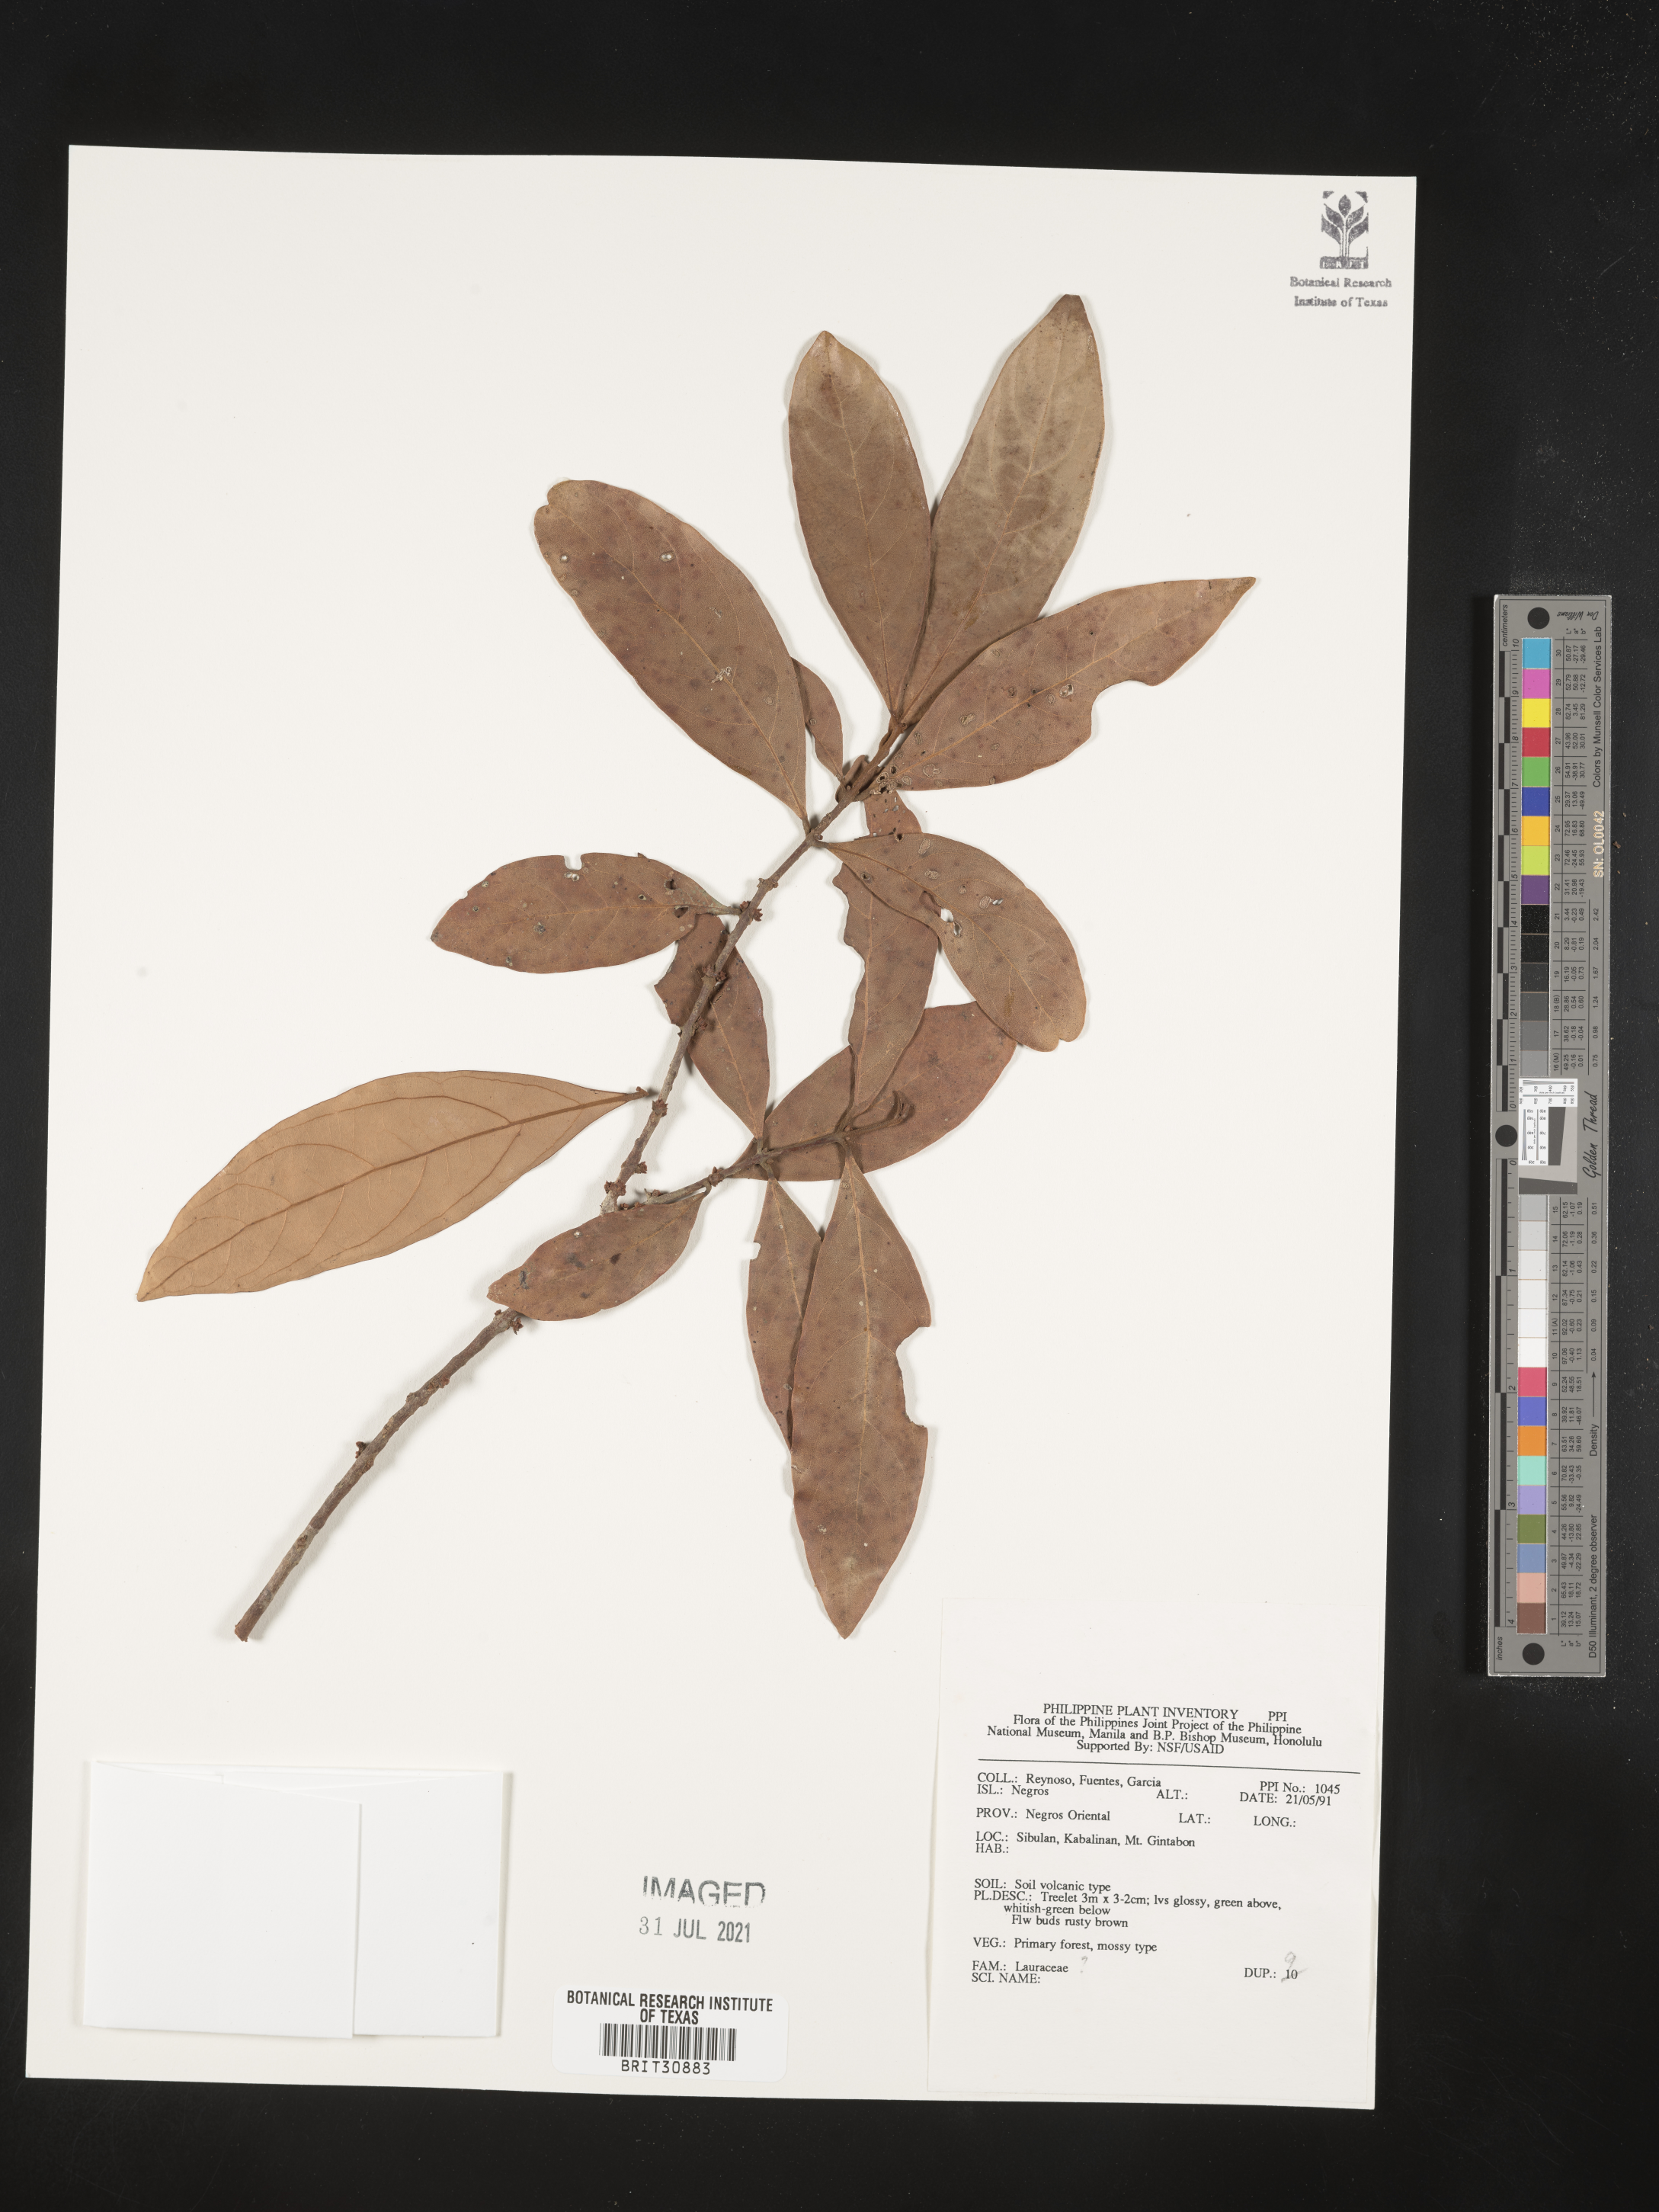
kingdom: Plantae
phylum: Tracheophyta
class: Magnoliopsida
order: Laurales
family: Lauraceae
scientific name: Lauraceae
